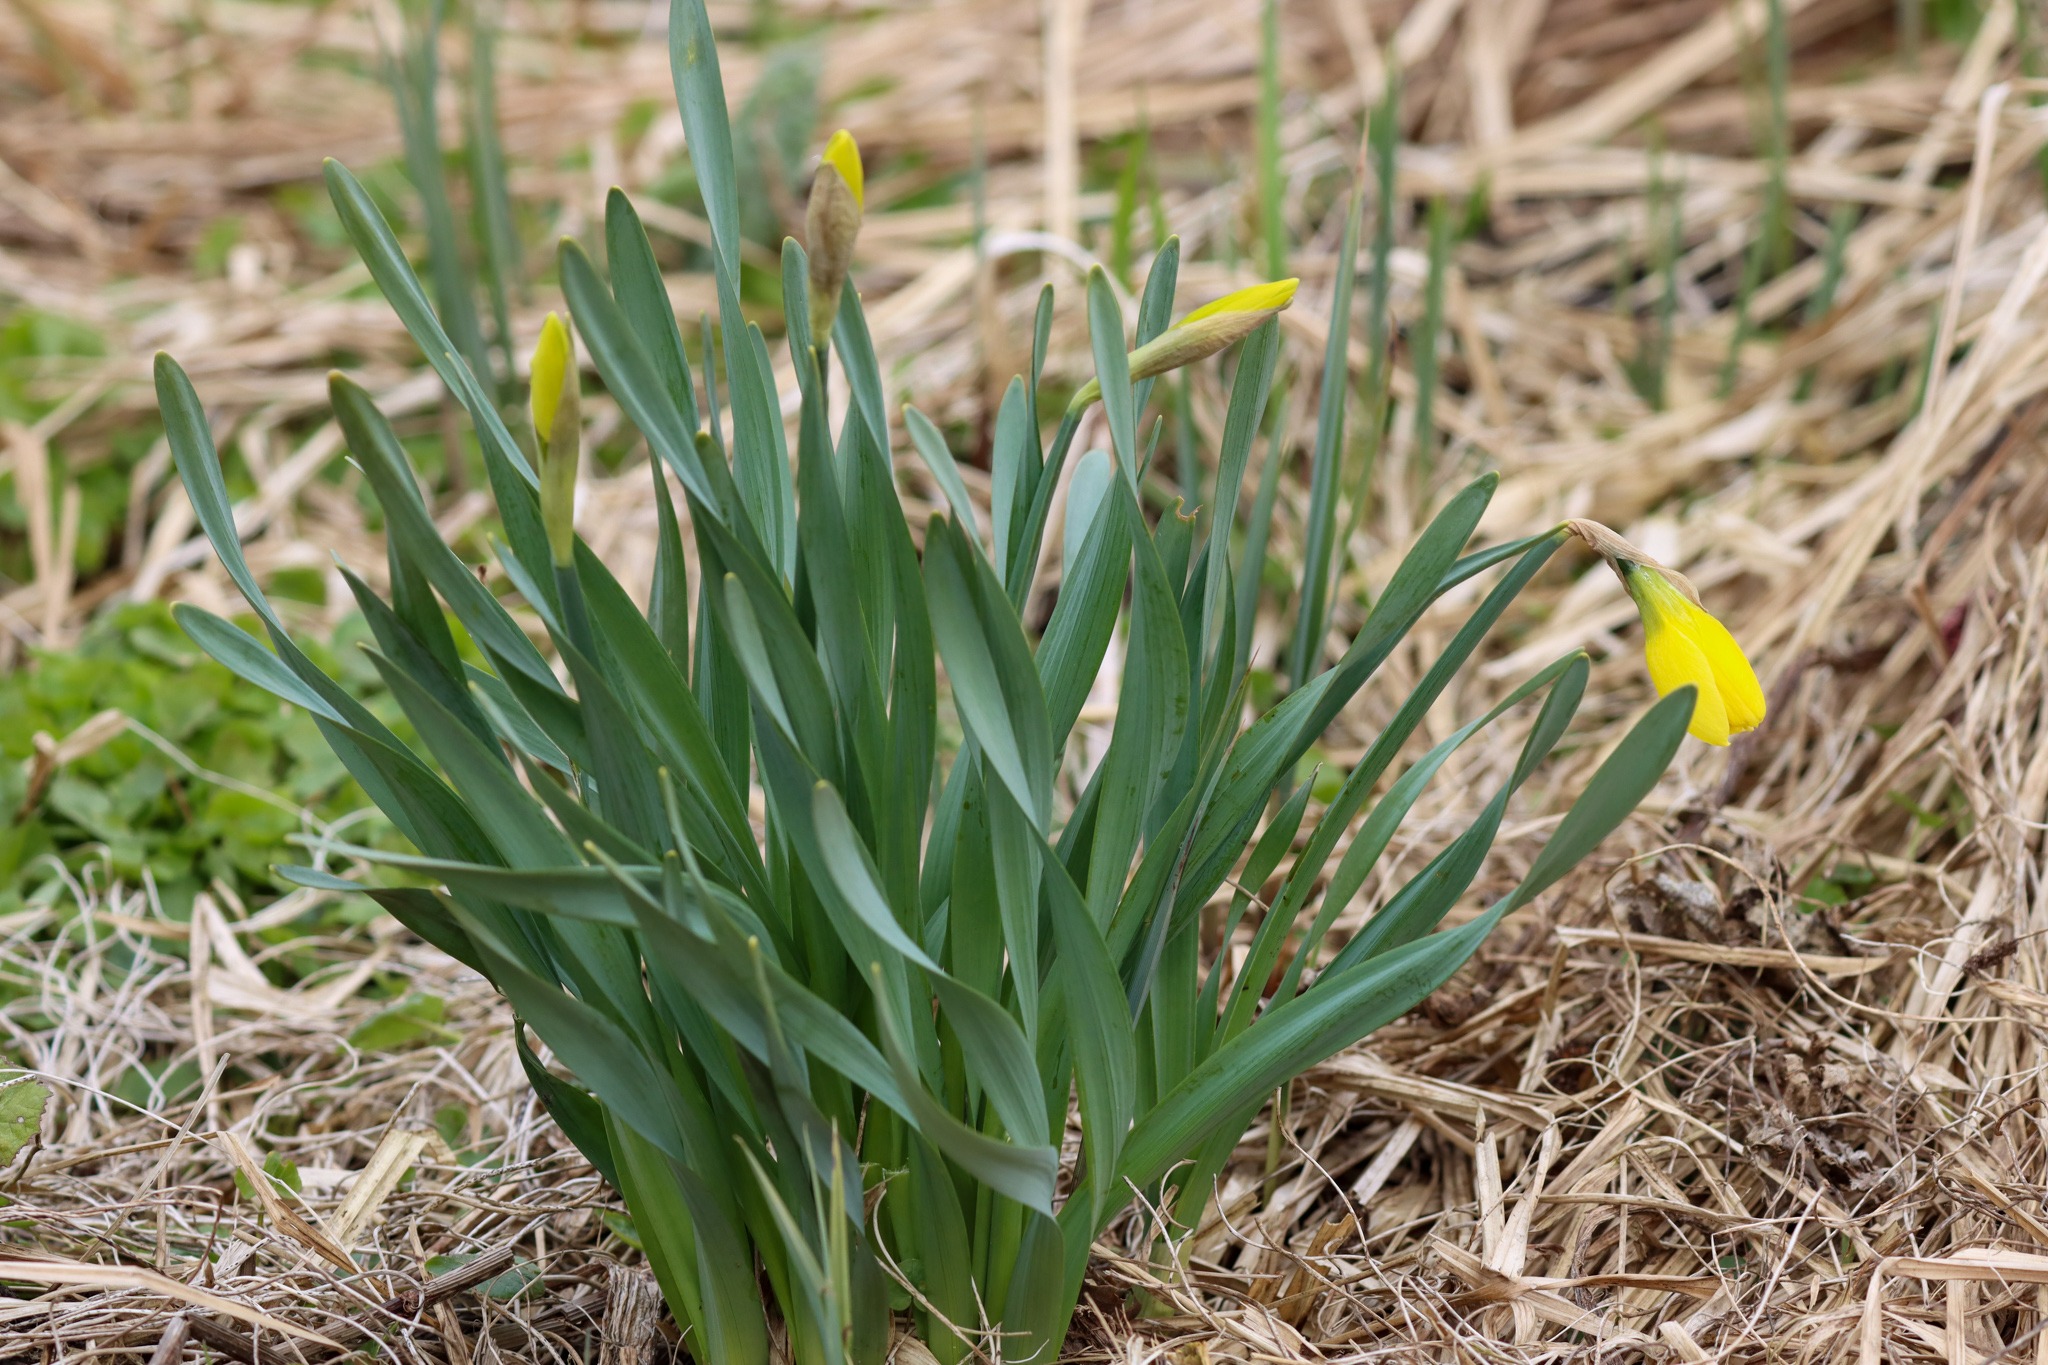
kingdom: Plantae
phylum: Tracheophyta
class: Liliopsida
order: Asparagales
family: Amaryllidaceae
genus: Narcissus
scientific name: Narcissus pseudonarcissus
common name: Påskelilje
